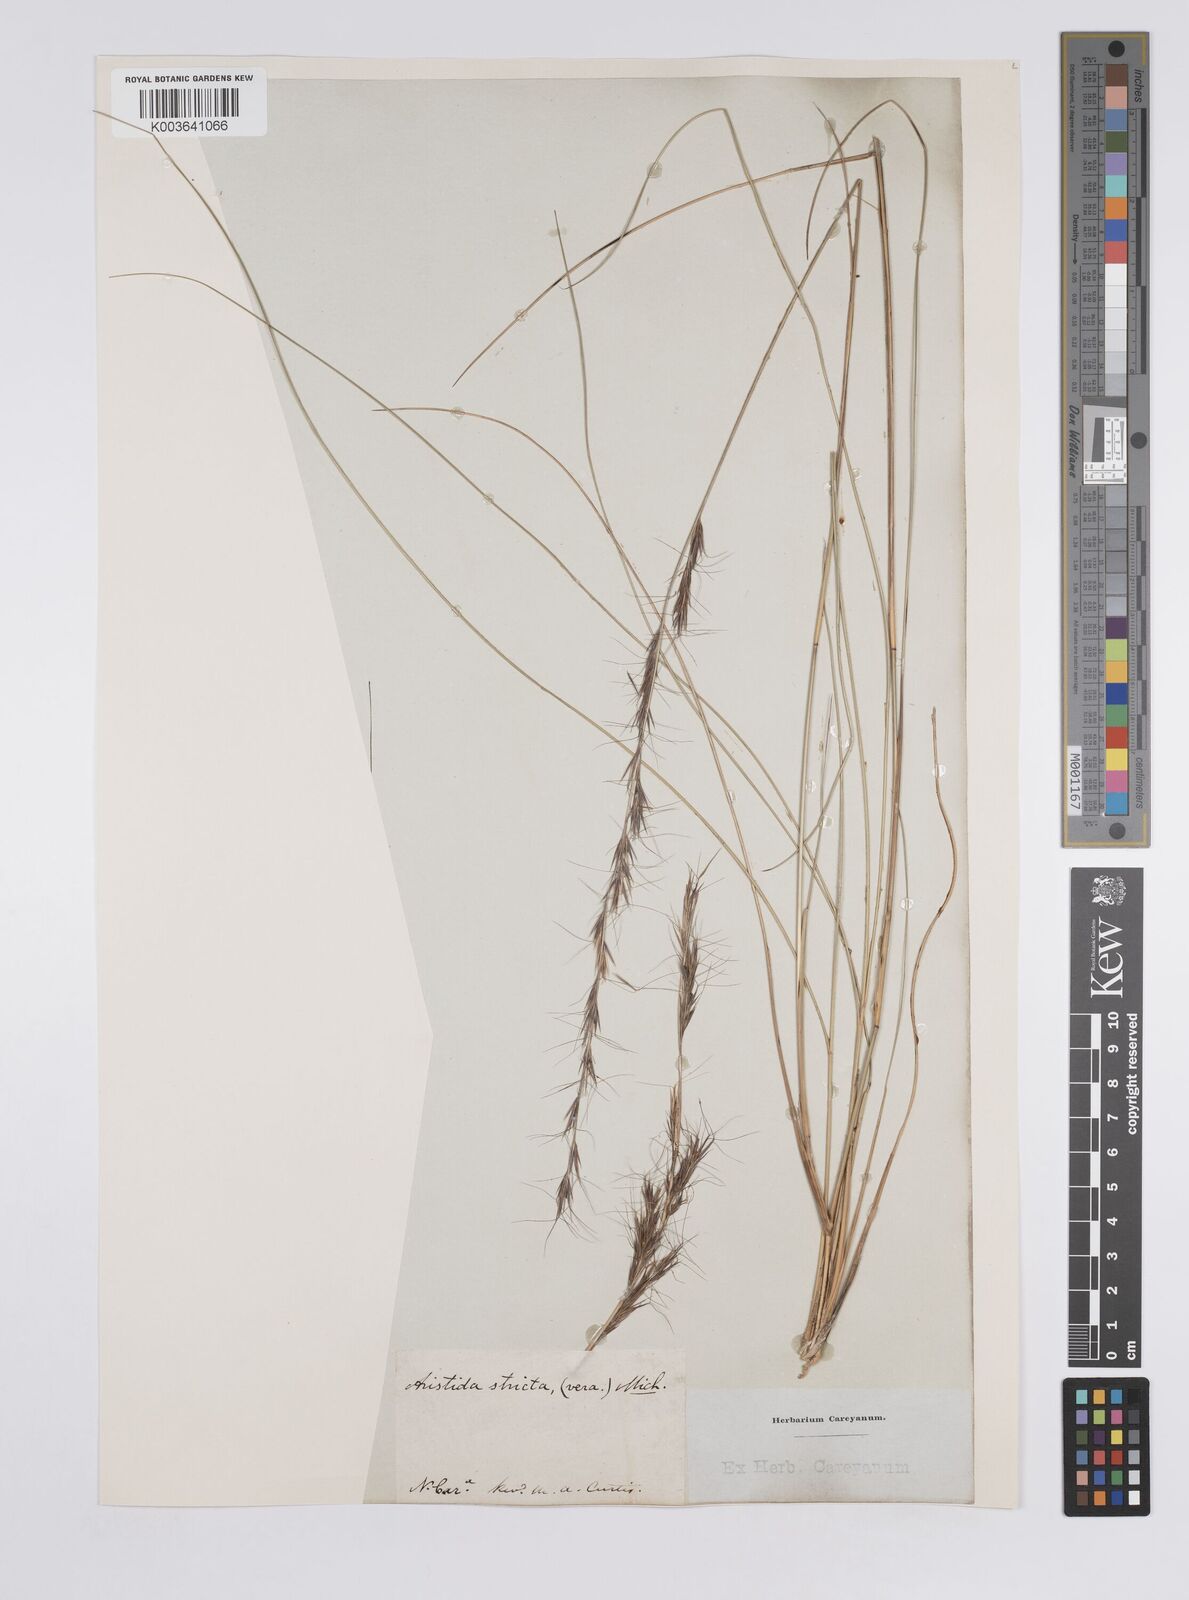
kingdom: Plantae
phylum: Tracheophyta
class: Liliopsida
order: Poales
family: Poaceae
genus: Aristida
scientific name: Aristida stricta
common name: Pineland three-awn
